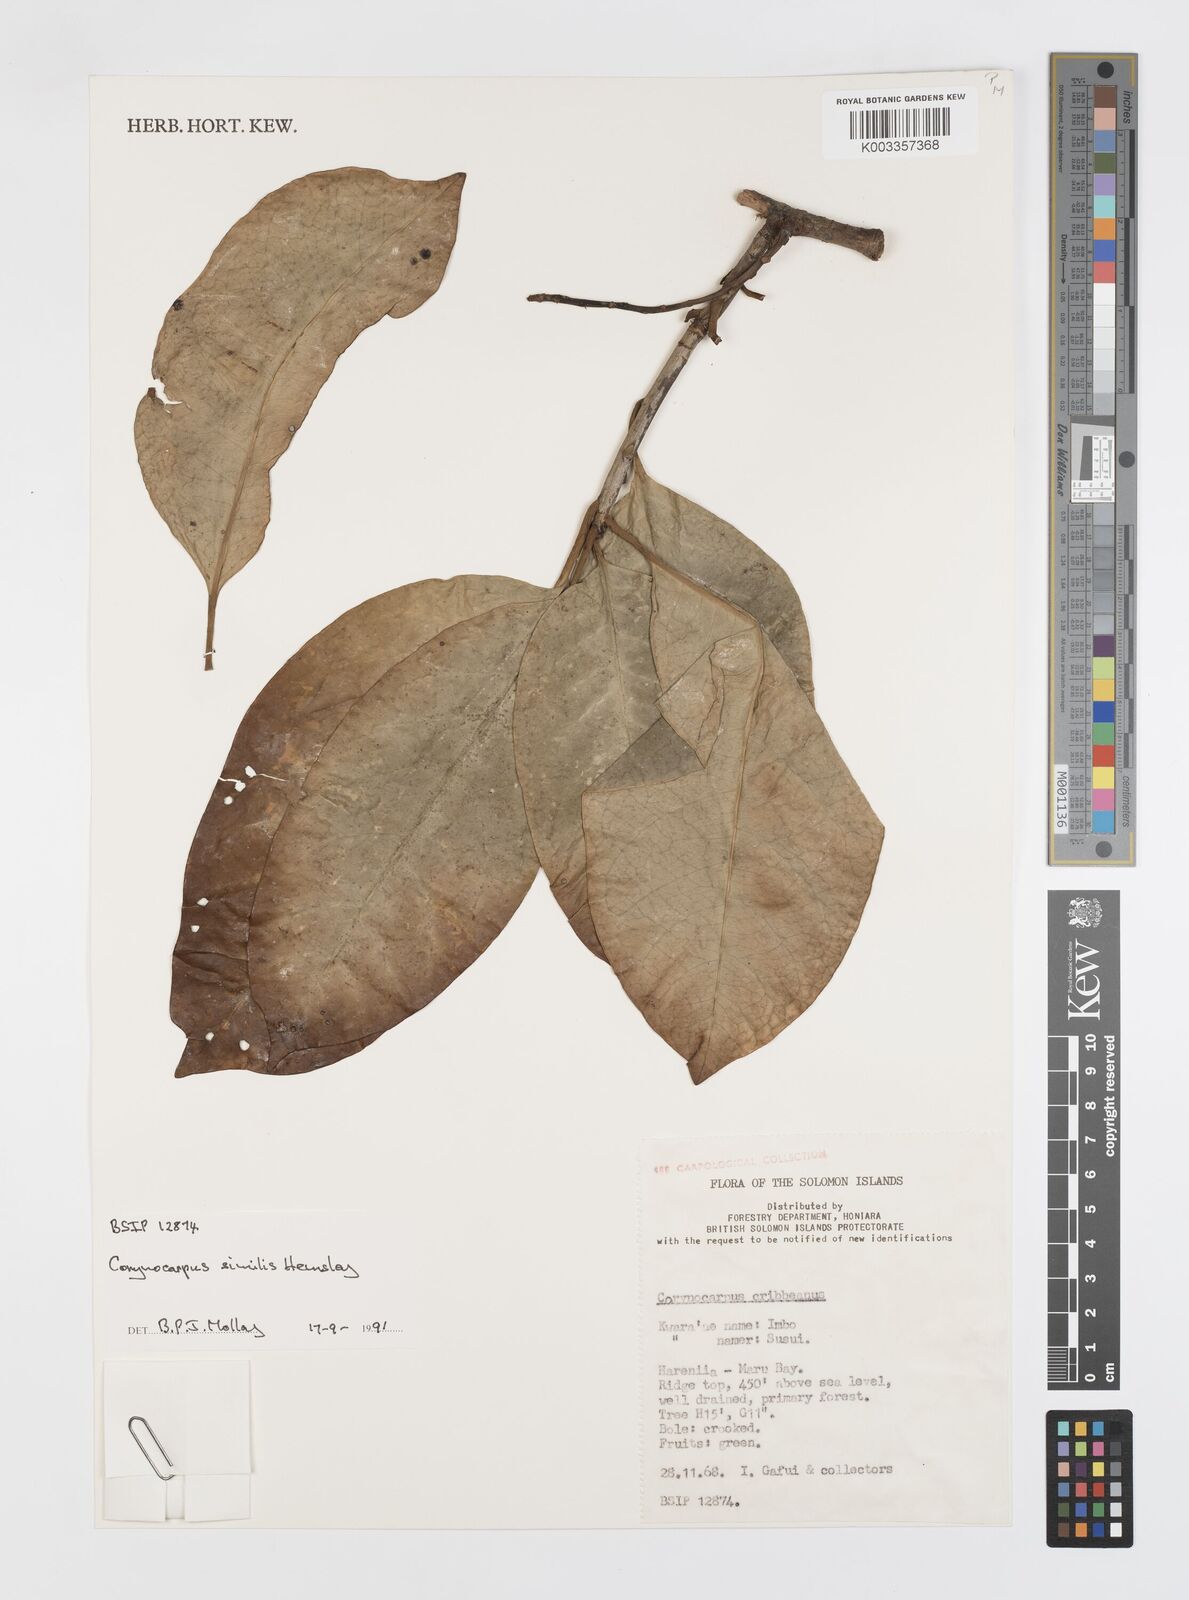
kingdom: Plantae
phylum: Tracheophyta
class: Magnoliopsida
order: Cucurbitales
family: Corynocarpaceae
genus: Corynocarpus
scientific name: Corynocarpus similis
